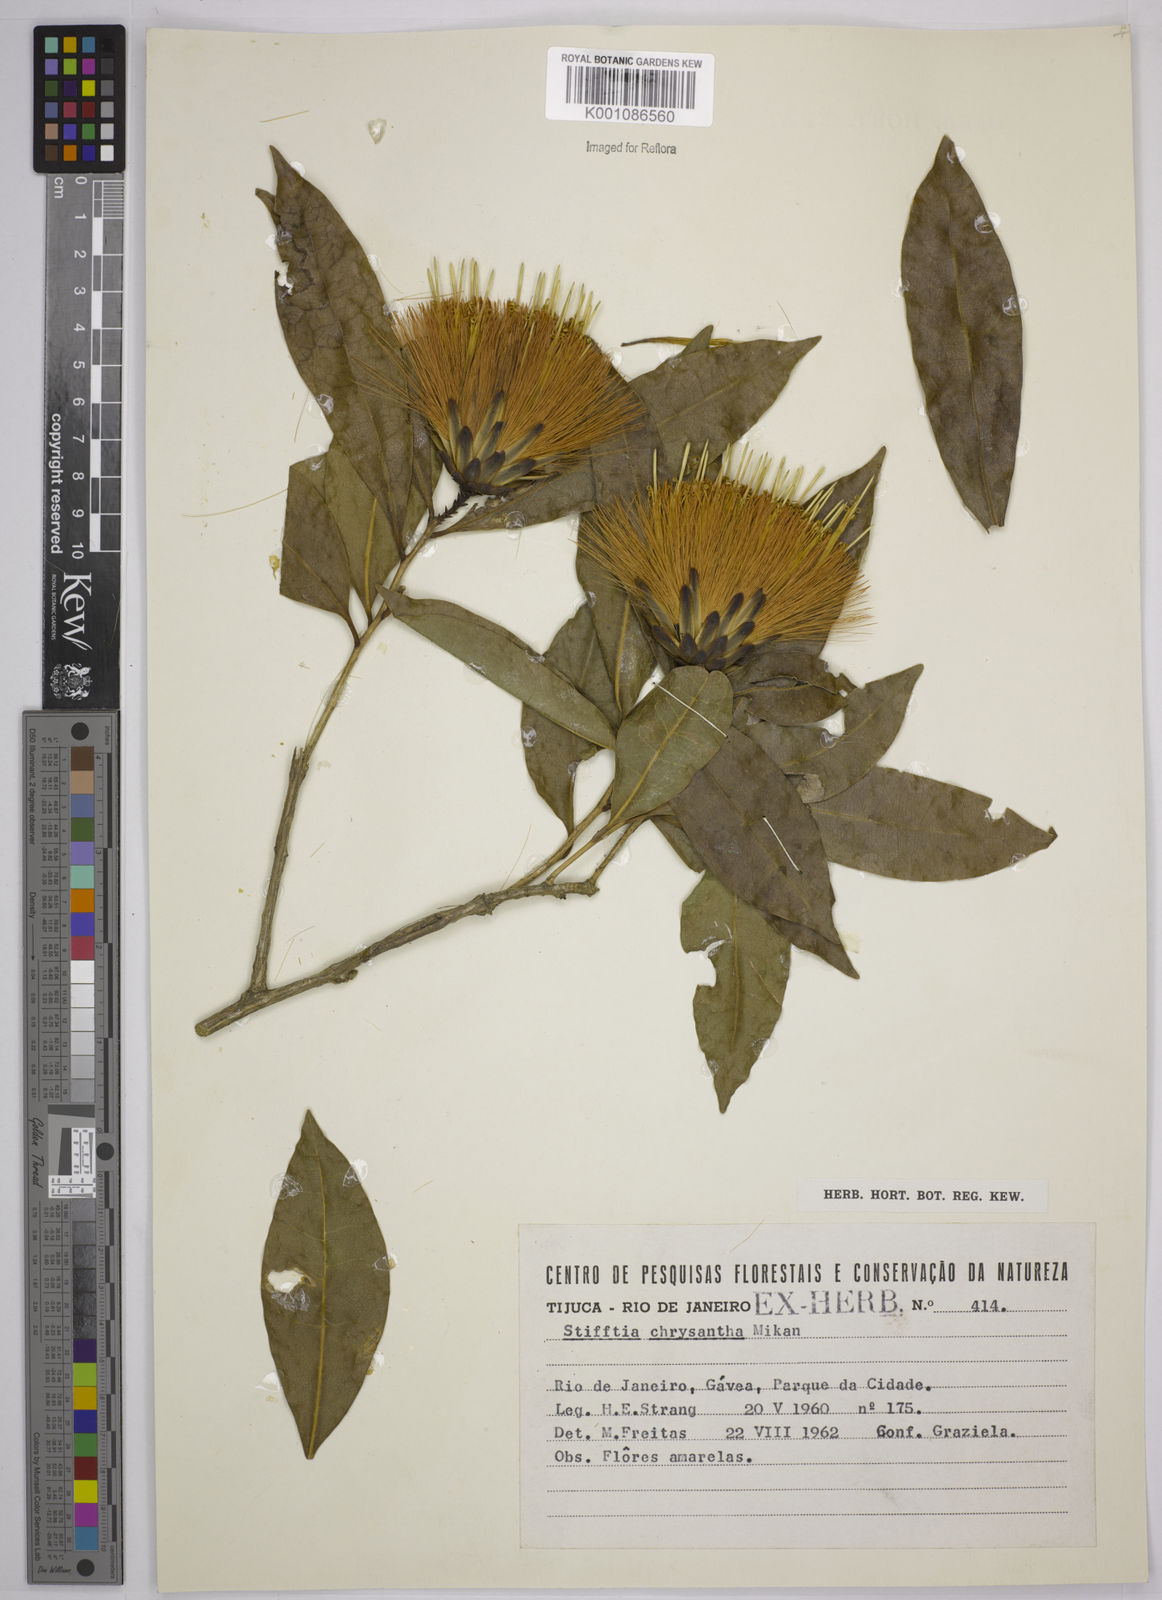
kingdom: Plantae
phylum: Tracheophyta
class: Magnoliopsida
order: Asterales
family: Asteraceae
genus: Stifftia
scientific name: Stifftia chrysantha
